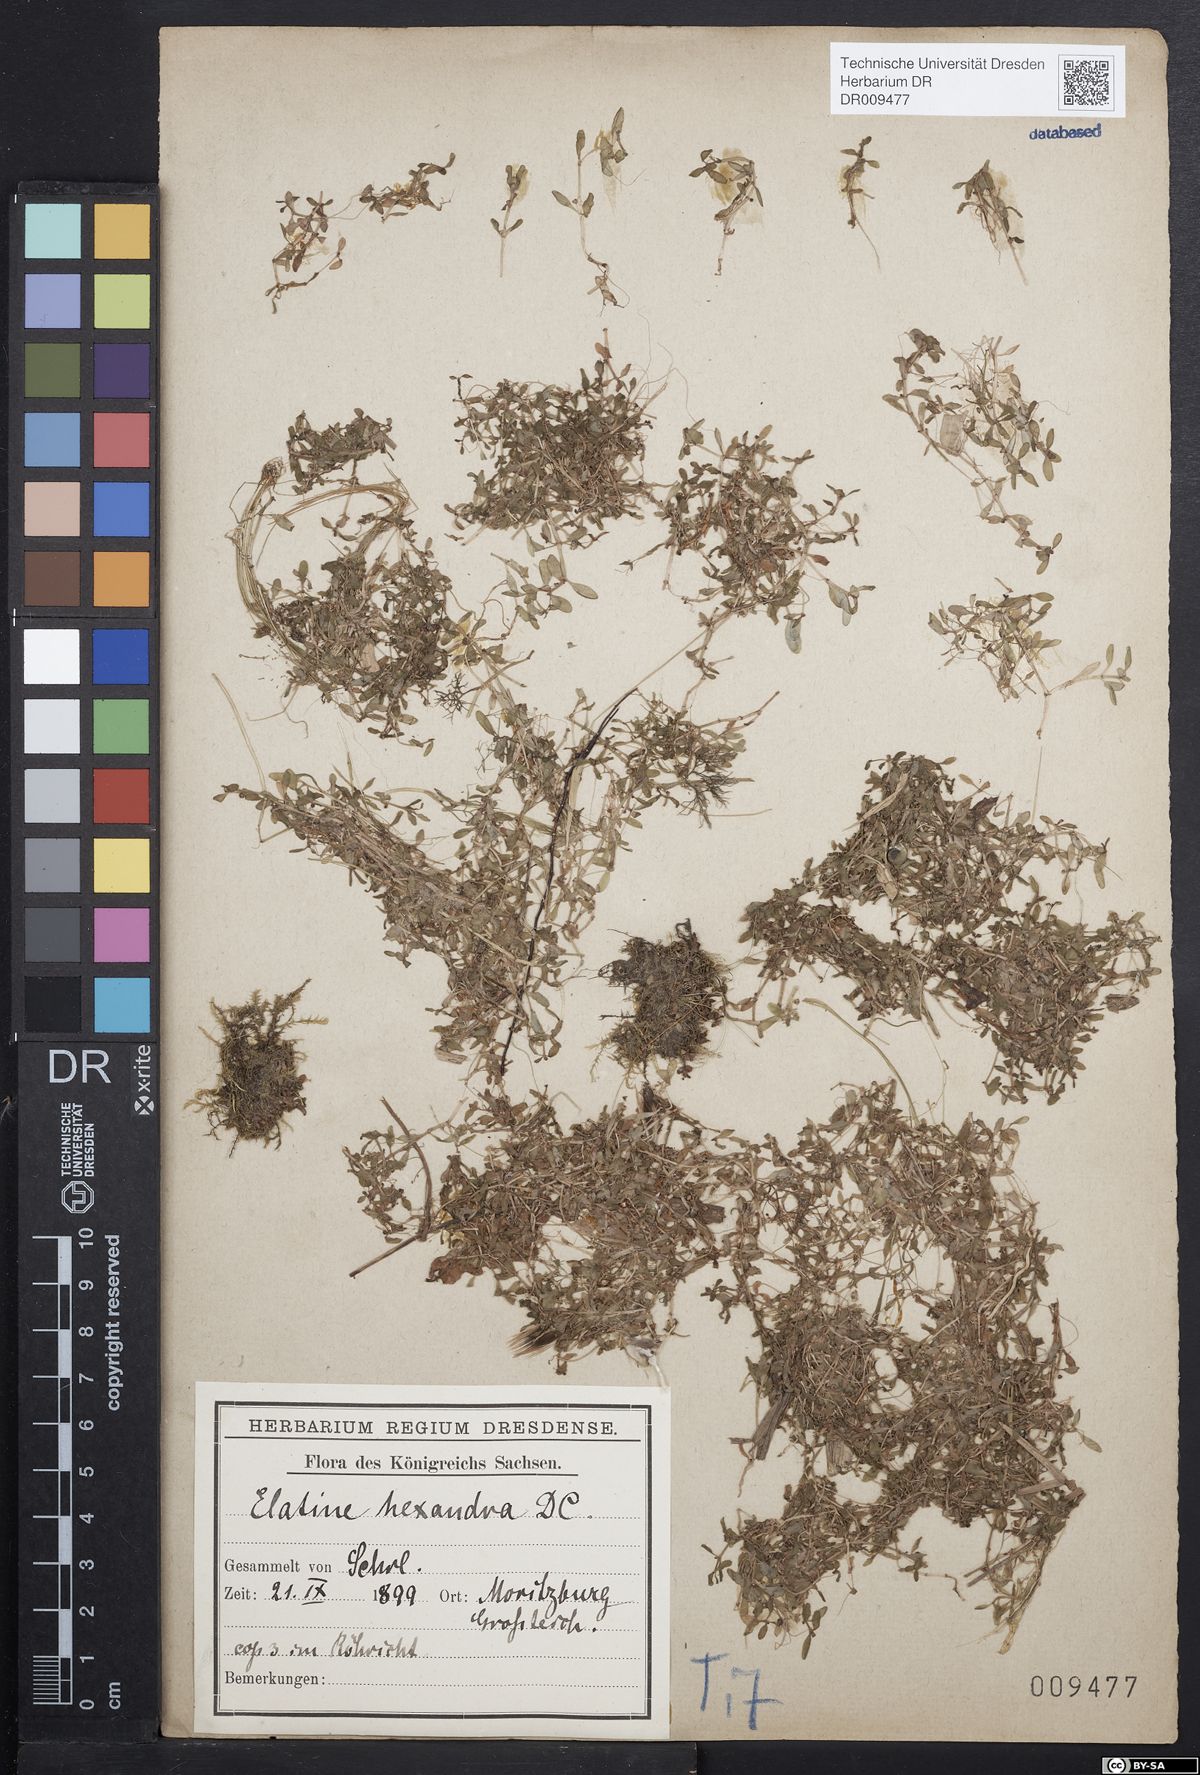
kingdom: Plantae
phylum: Tracheophyta
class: Magnoliopsida
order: Malpighiales
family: Elatinaceae
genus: Elatine
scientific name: Elatine hexandra
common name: Six-stamened waterwort
